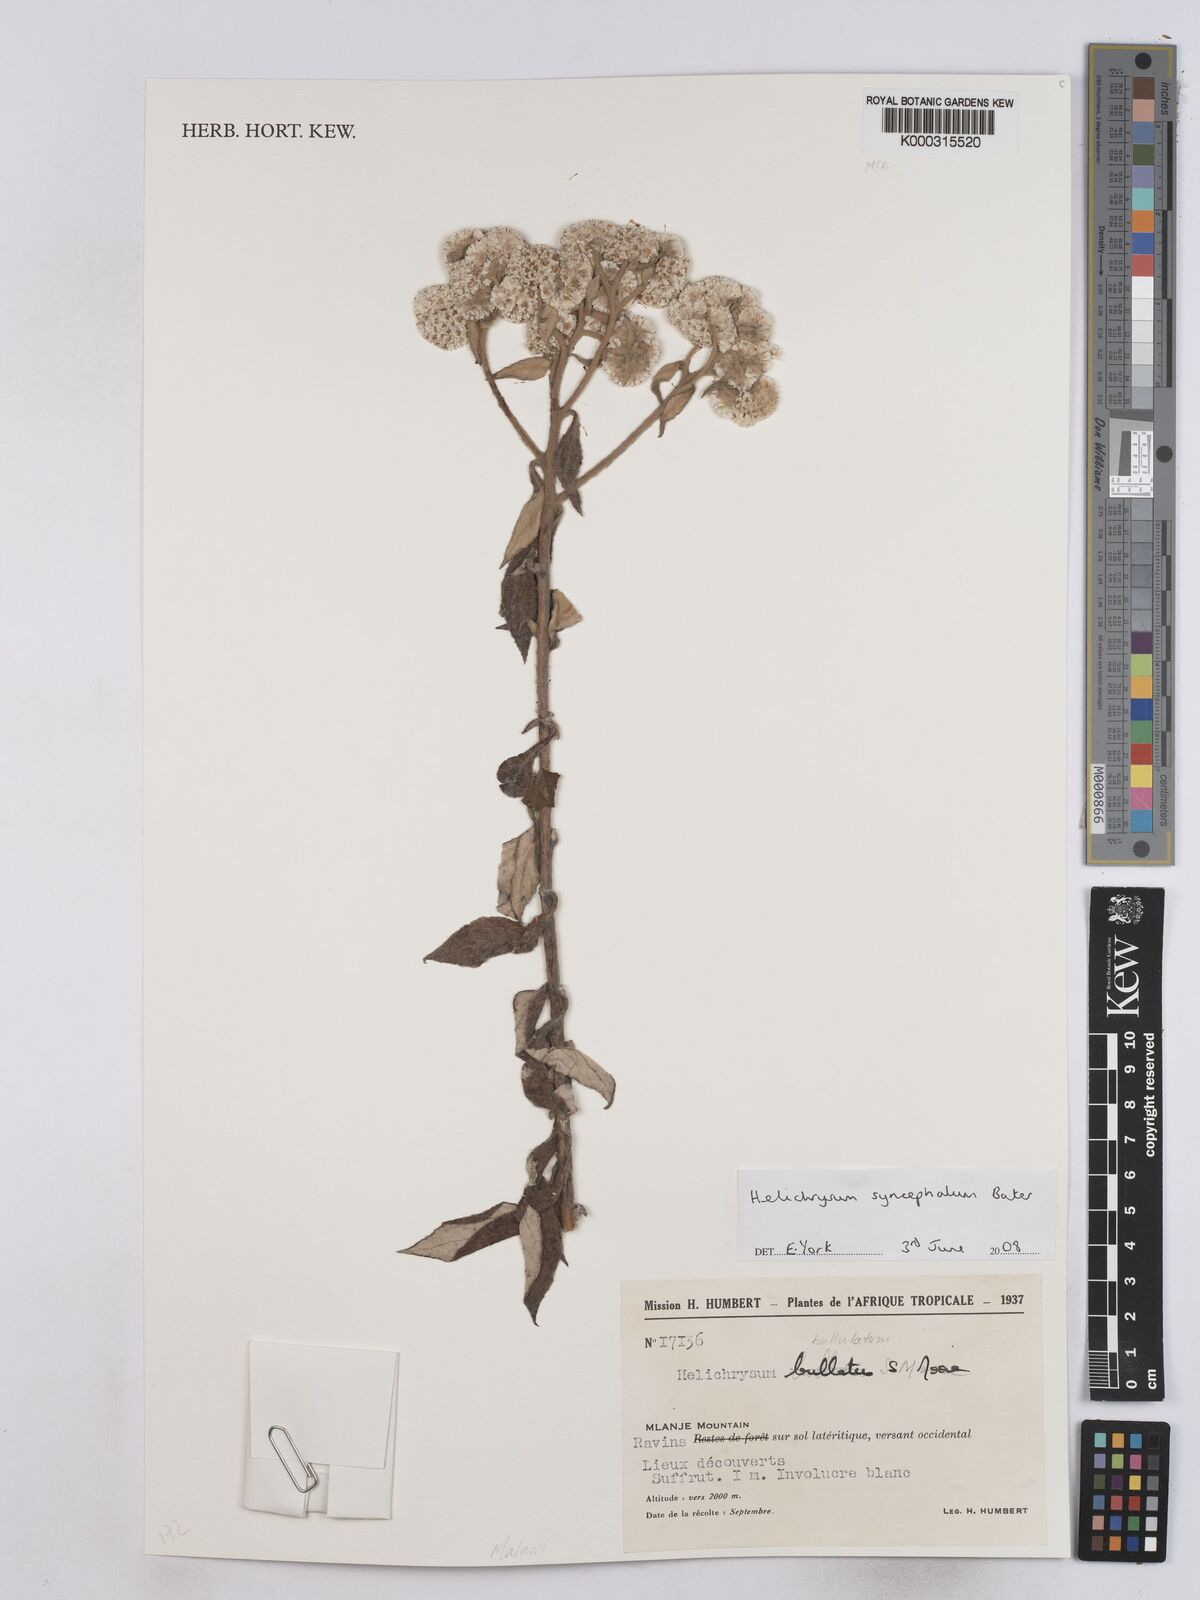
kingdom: Plantae
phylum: Tracheophyta
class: Magnoliopsida
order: Asterales
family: Asteraceae
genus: Helichrysum
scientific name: Helichrysum bullulatum
